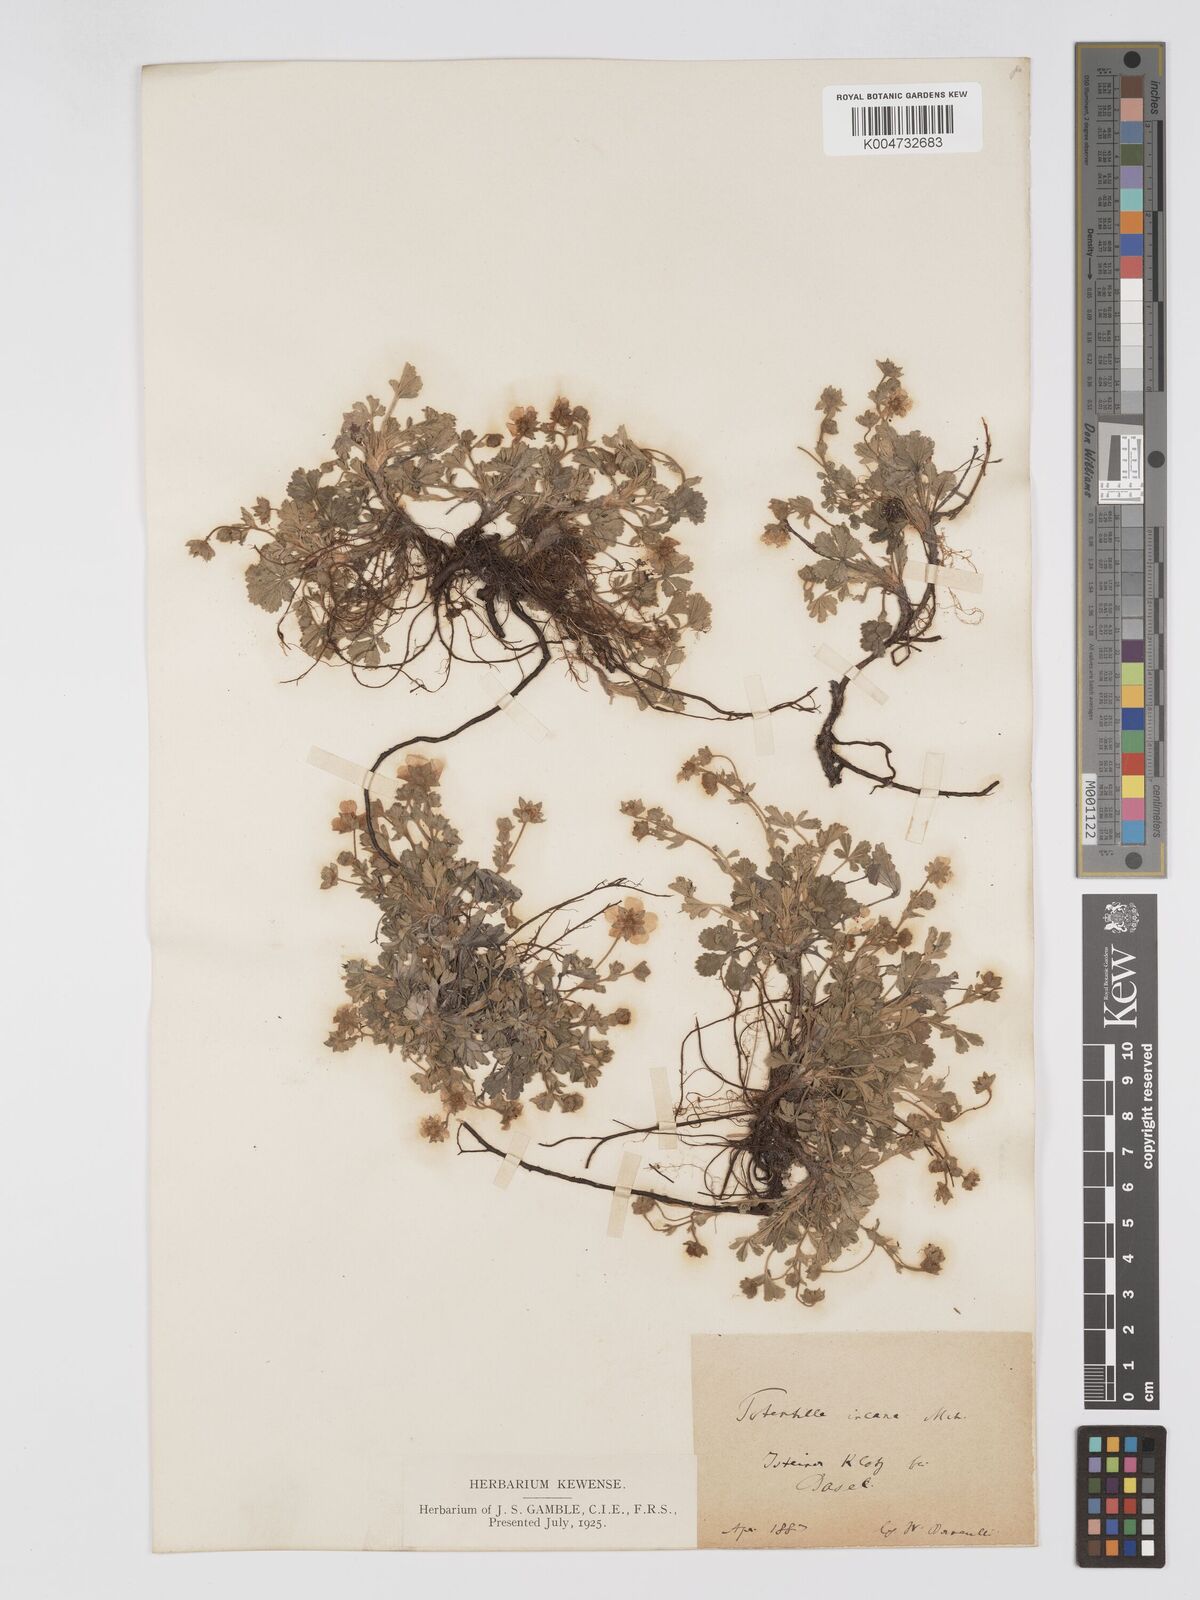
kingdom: Plantae
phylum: Tracheophyta
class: Magnoliopsida
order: Rosales
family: Rosaceae
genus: Potentilla
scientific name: Potentilla cinerea
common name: Ashy cinquefoil
